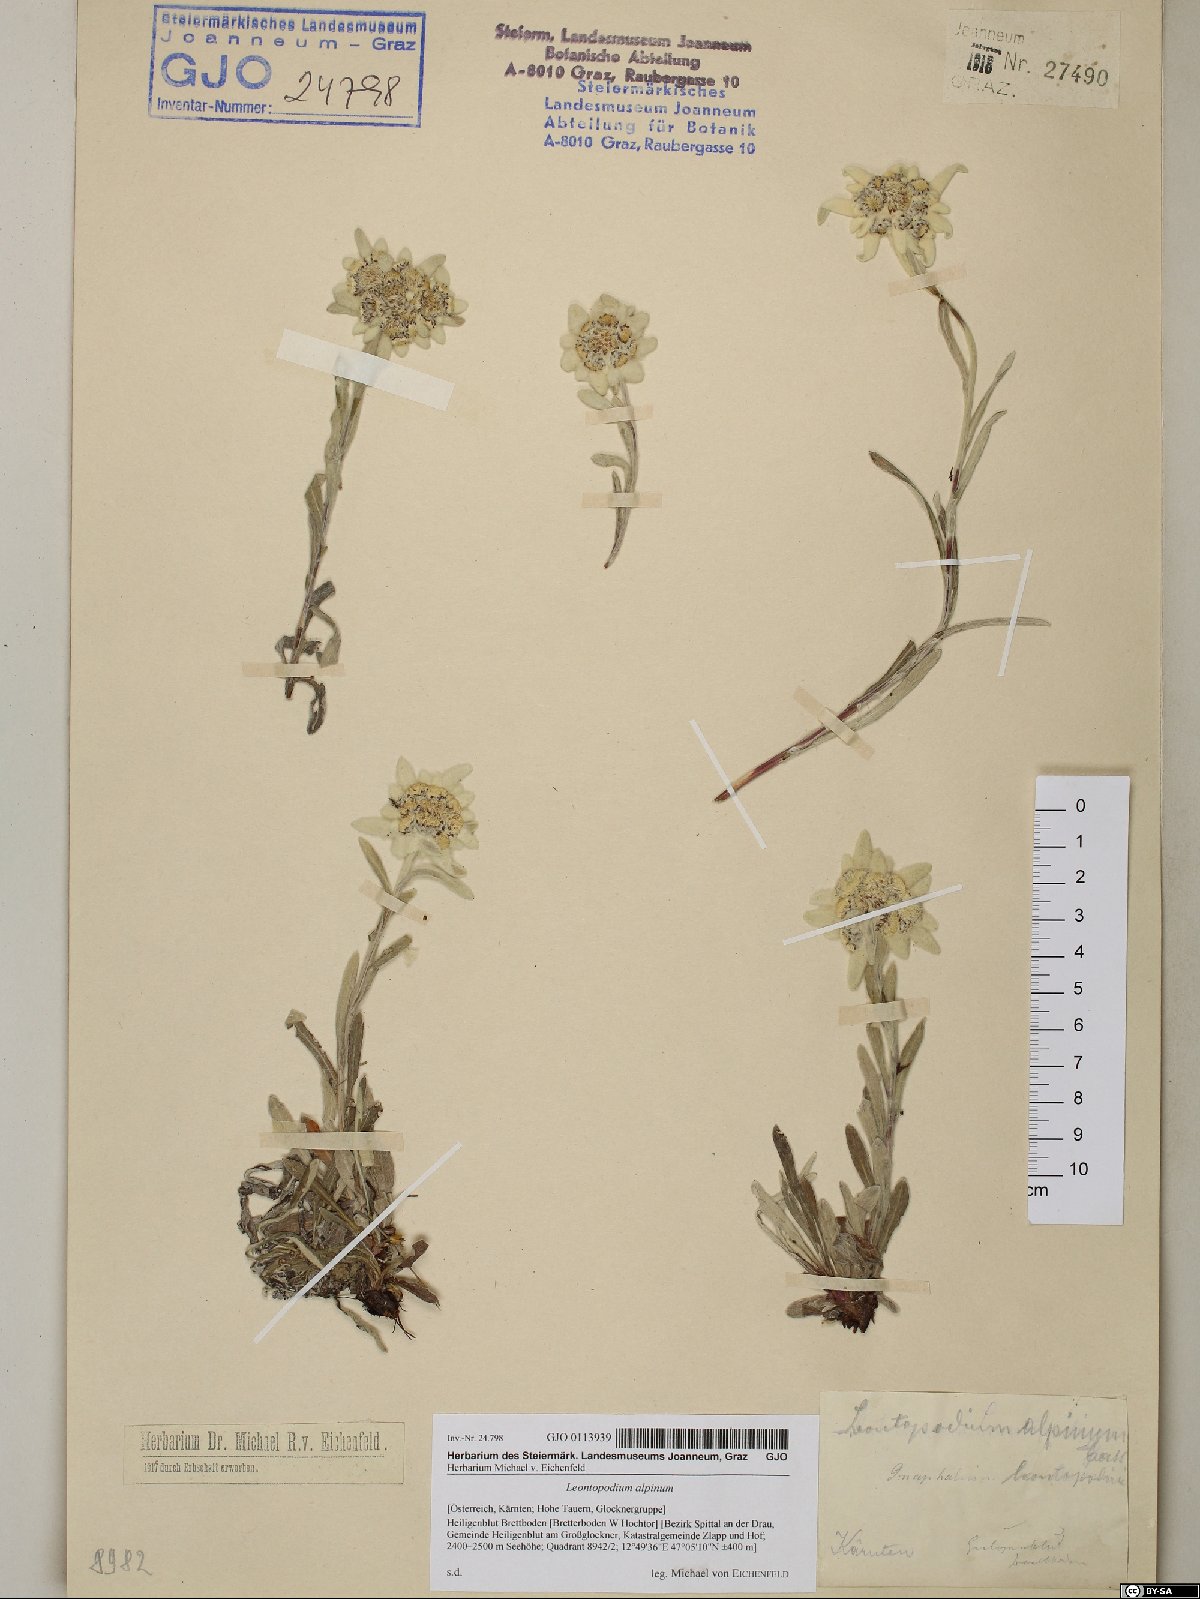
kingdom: Plantae
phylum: Tracheophyta
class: Magnoliopsida
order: Asterales
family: Asteraceae
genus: Leontopodium
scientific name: Leontopodium nivale
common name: Edelweiss
